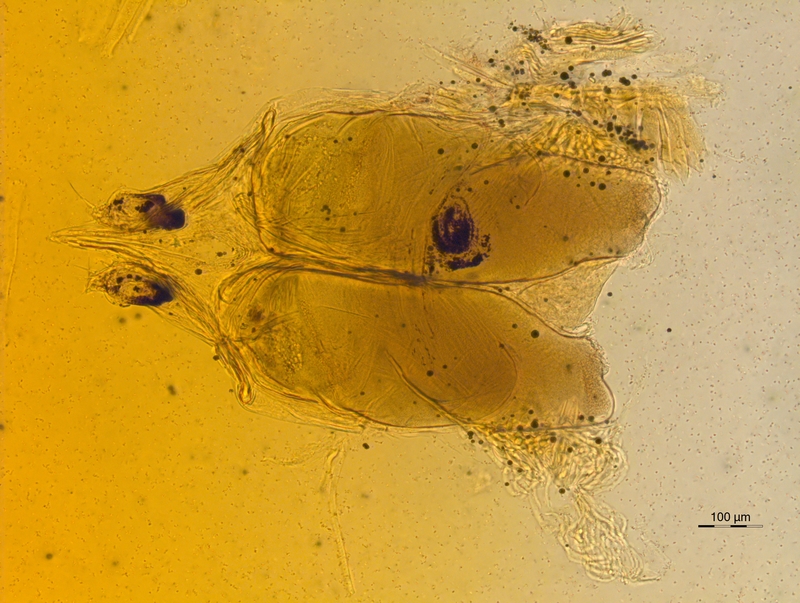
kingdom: Animalia
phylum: Arthropoda
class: Diplopoda
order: Chordeumatida
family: Chordeumatidae
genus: Chordeuma
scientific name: Chordeuma sylvestre
